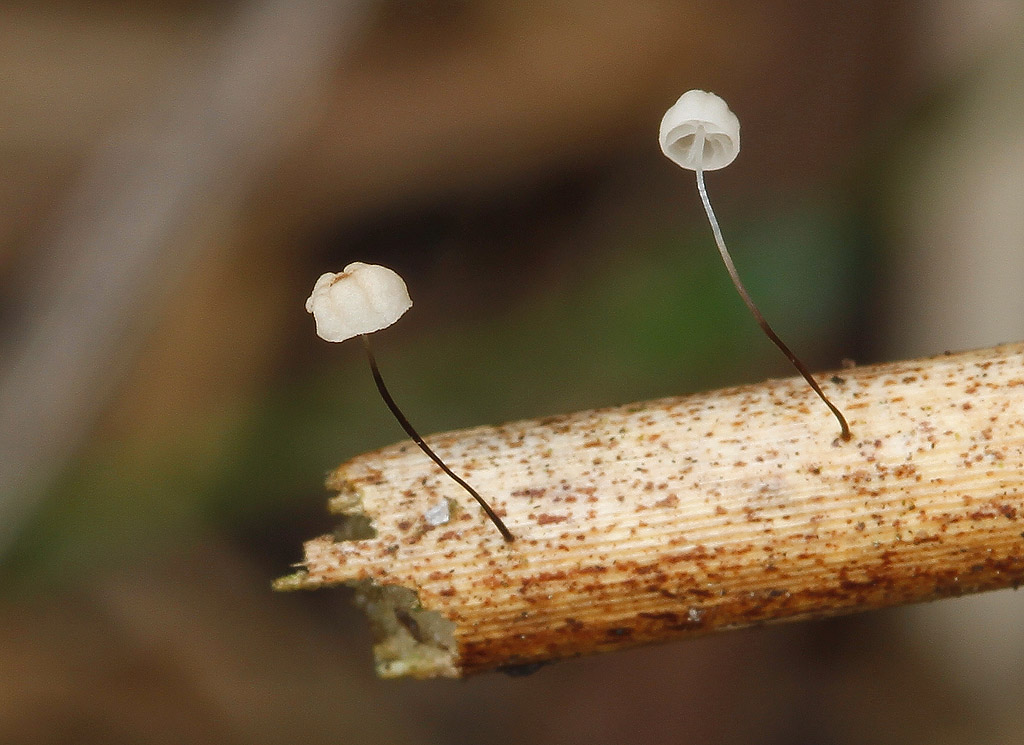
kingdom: Fungi
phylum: Basidiomycota
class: Agaricomycetes
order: Agaricales
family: Marasmiaceae
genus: Marasmius
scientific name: Marasmius limosus
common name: kær-bruskhat
